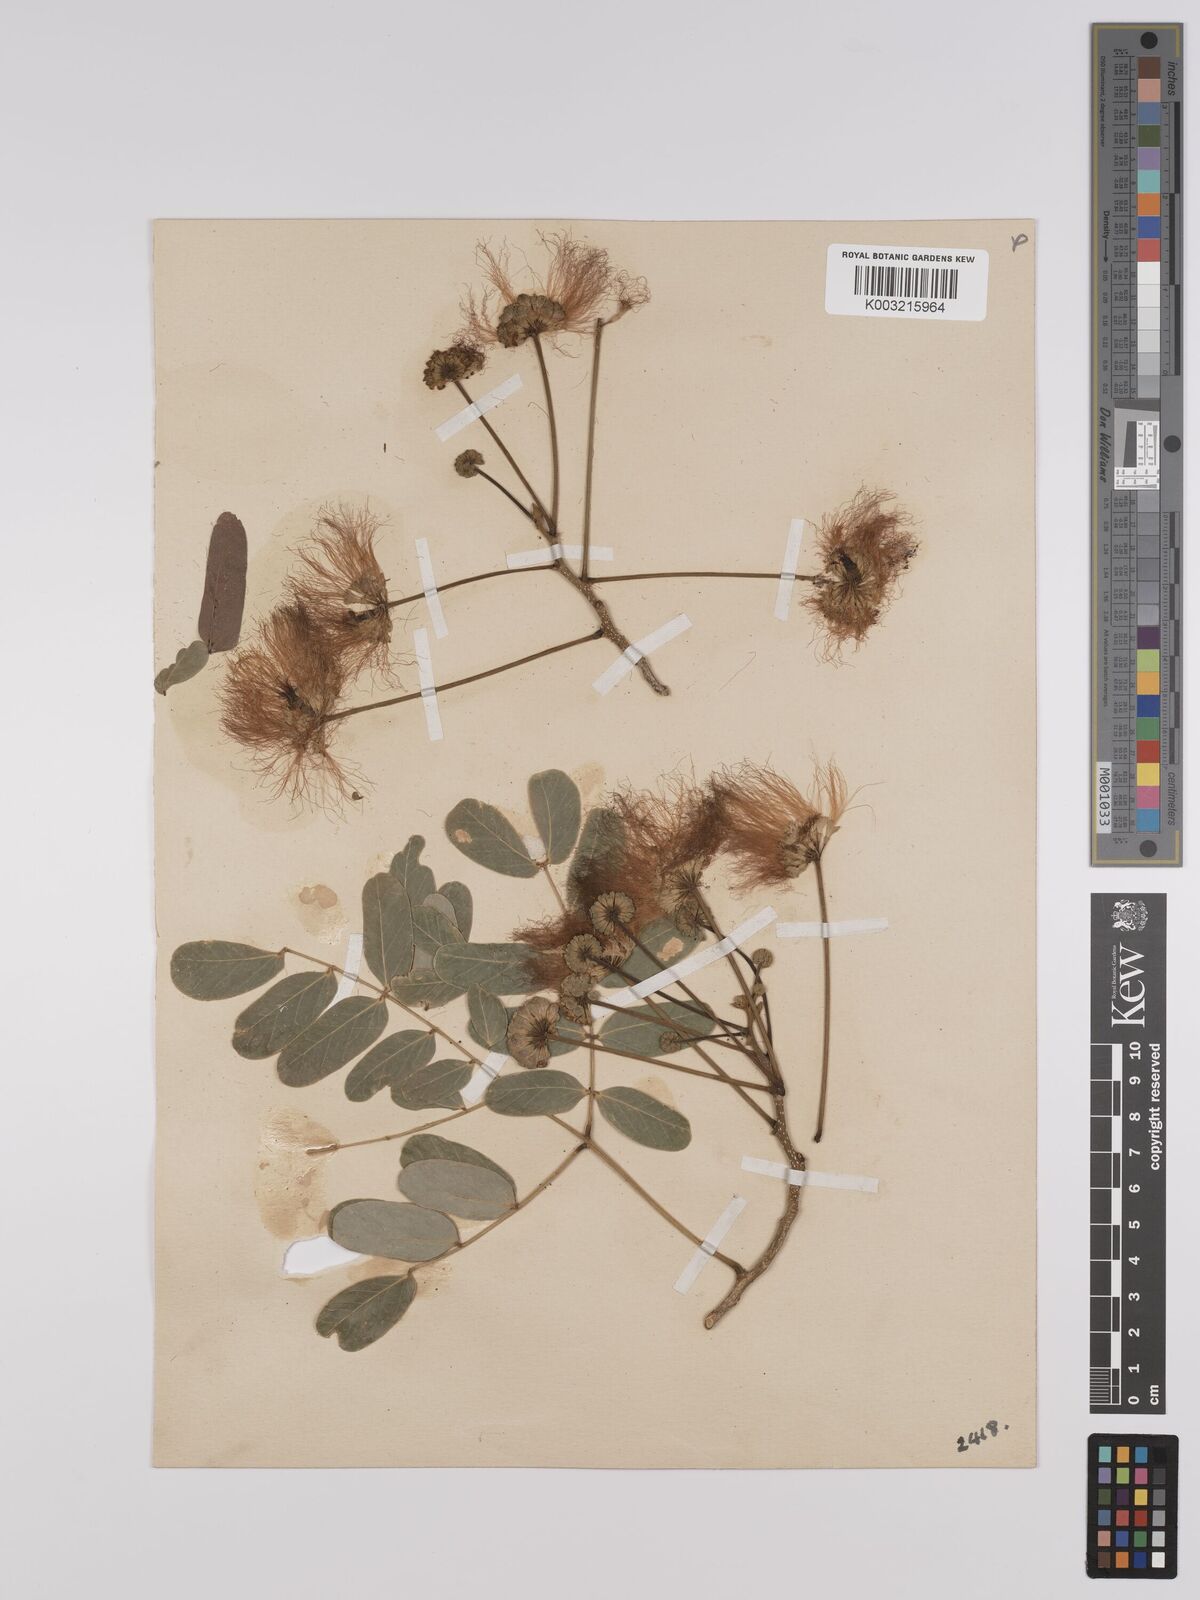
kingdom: Plantae
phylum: Tracheophyta
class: Magnoliopsida
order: Fabales
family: Fabaceae
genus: Albizia
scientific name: Albizia lebbeck
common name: Woman's tongue
